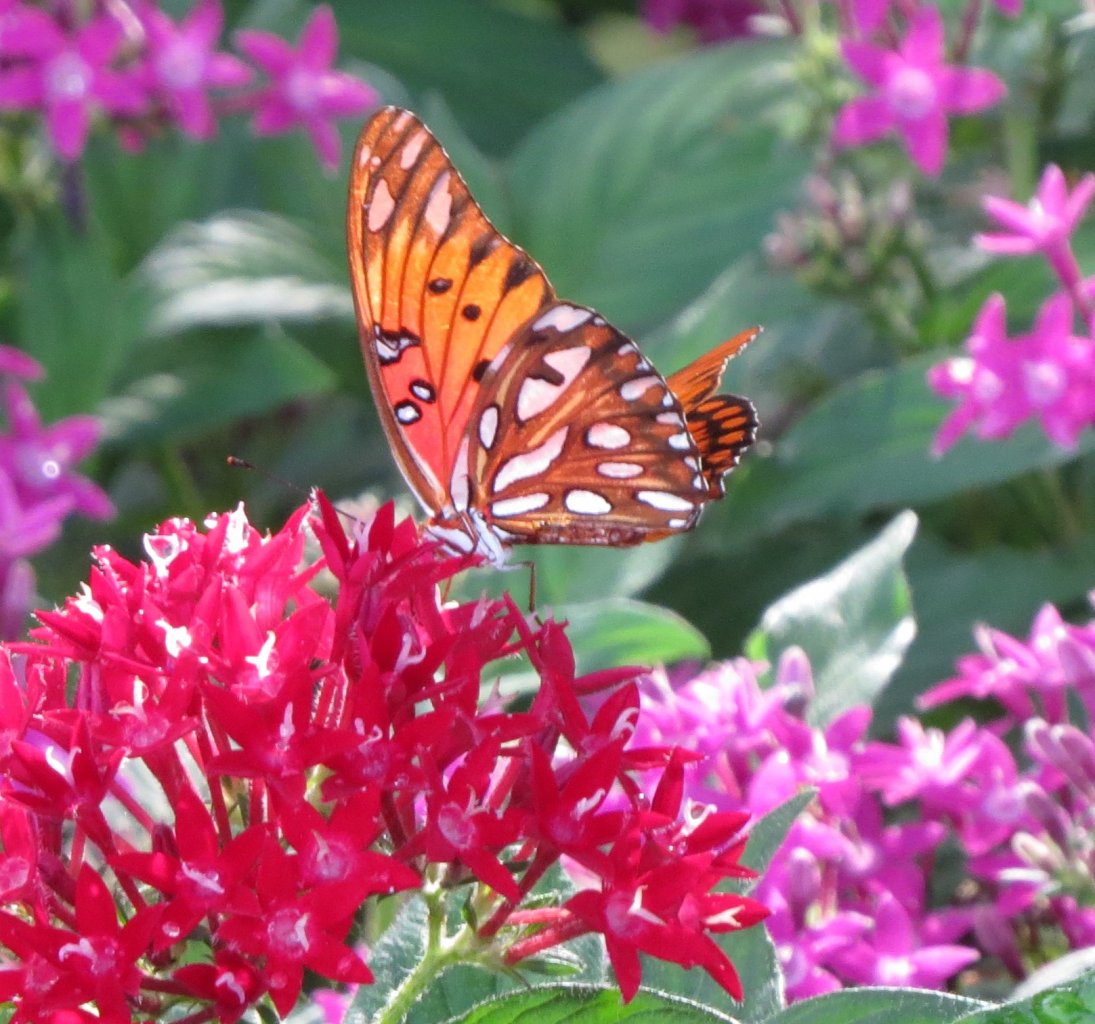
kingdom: Animalia
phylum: Arthropoda
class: Insecta
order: Lepidoptera
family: Nymphalidae
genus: Dione
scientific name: Dione vanillae
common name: Gulf Fritillary
